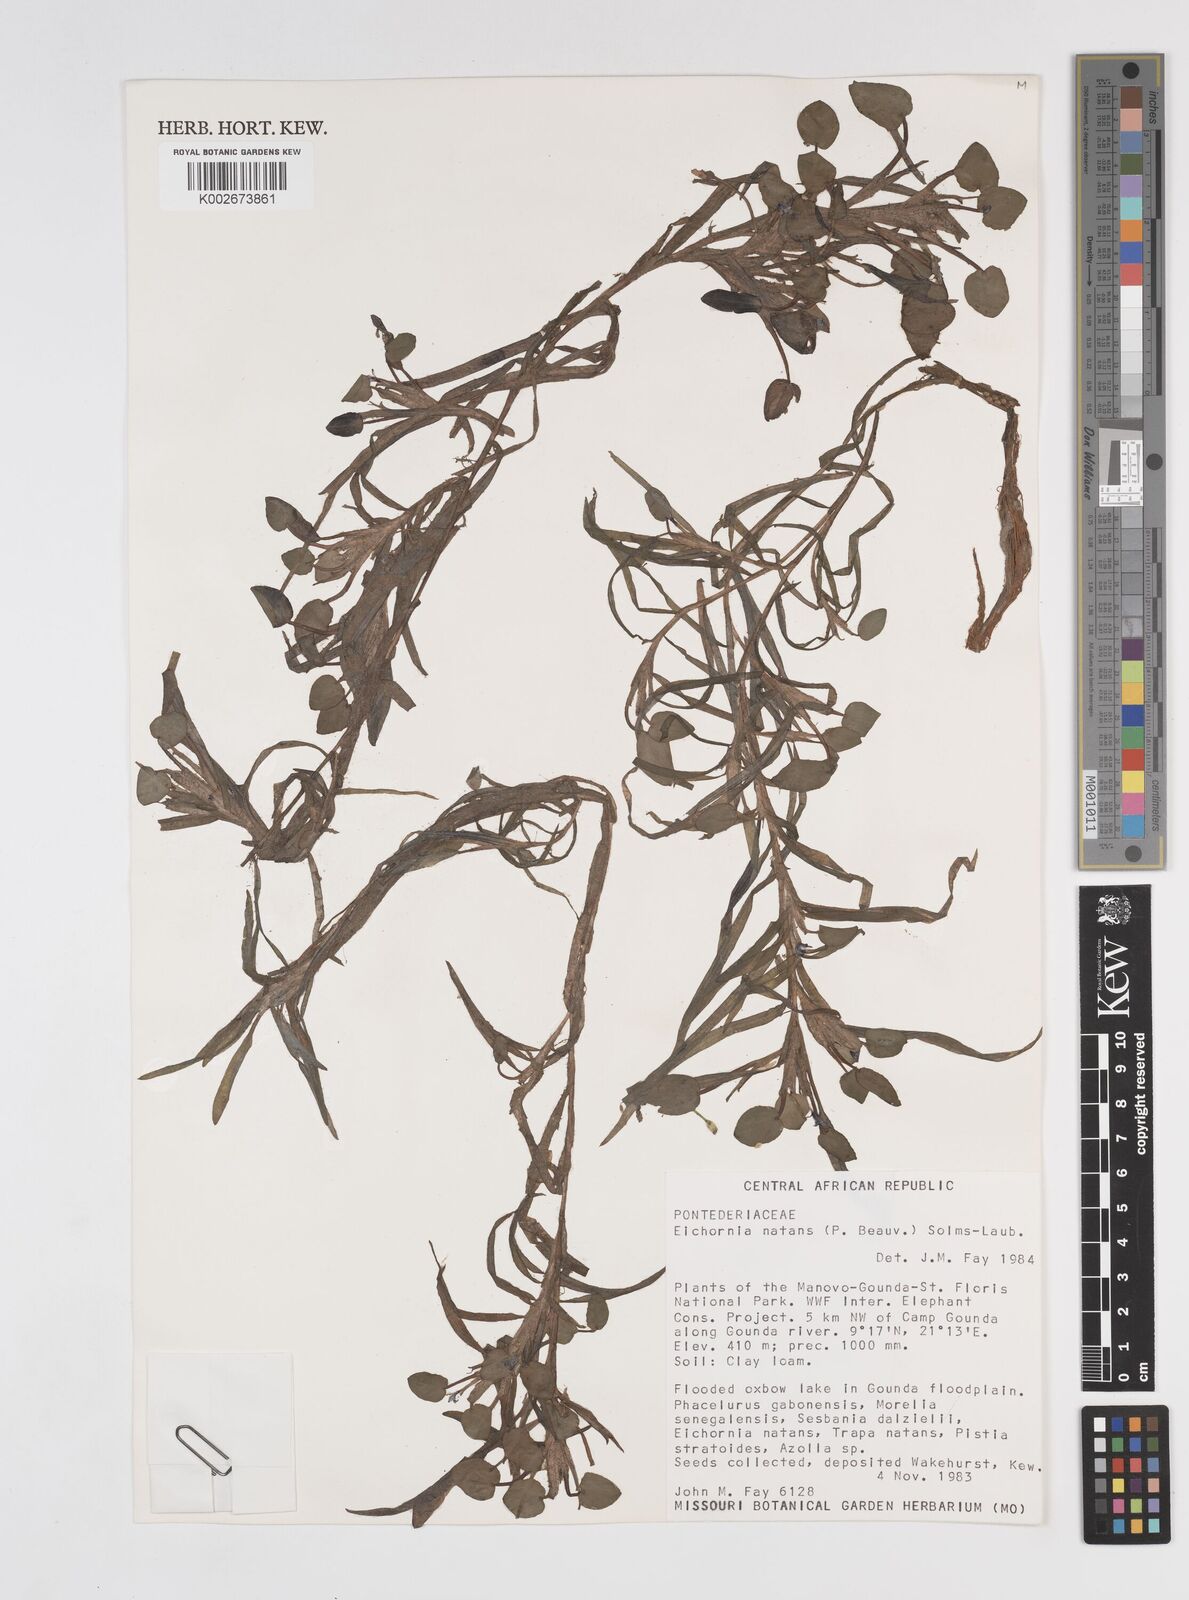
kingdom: Plantae
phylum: Tracheophyta
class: Liliopsida
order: Commelinales
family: Pontederiaceae
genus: Pontederia
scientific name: Pontederia natans
